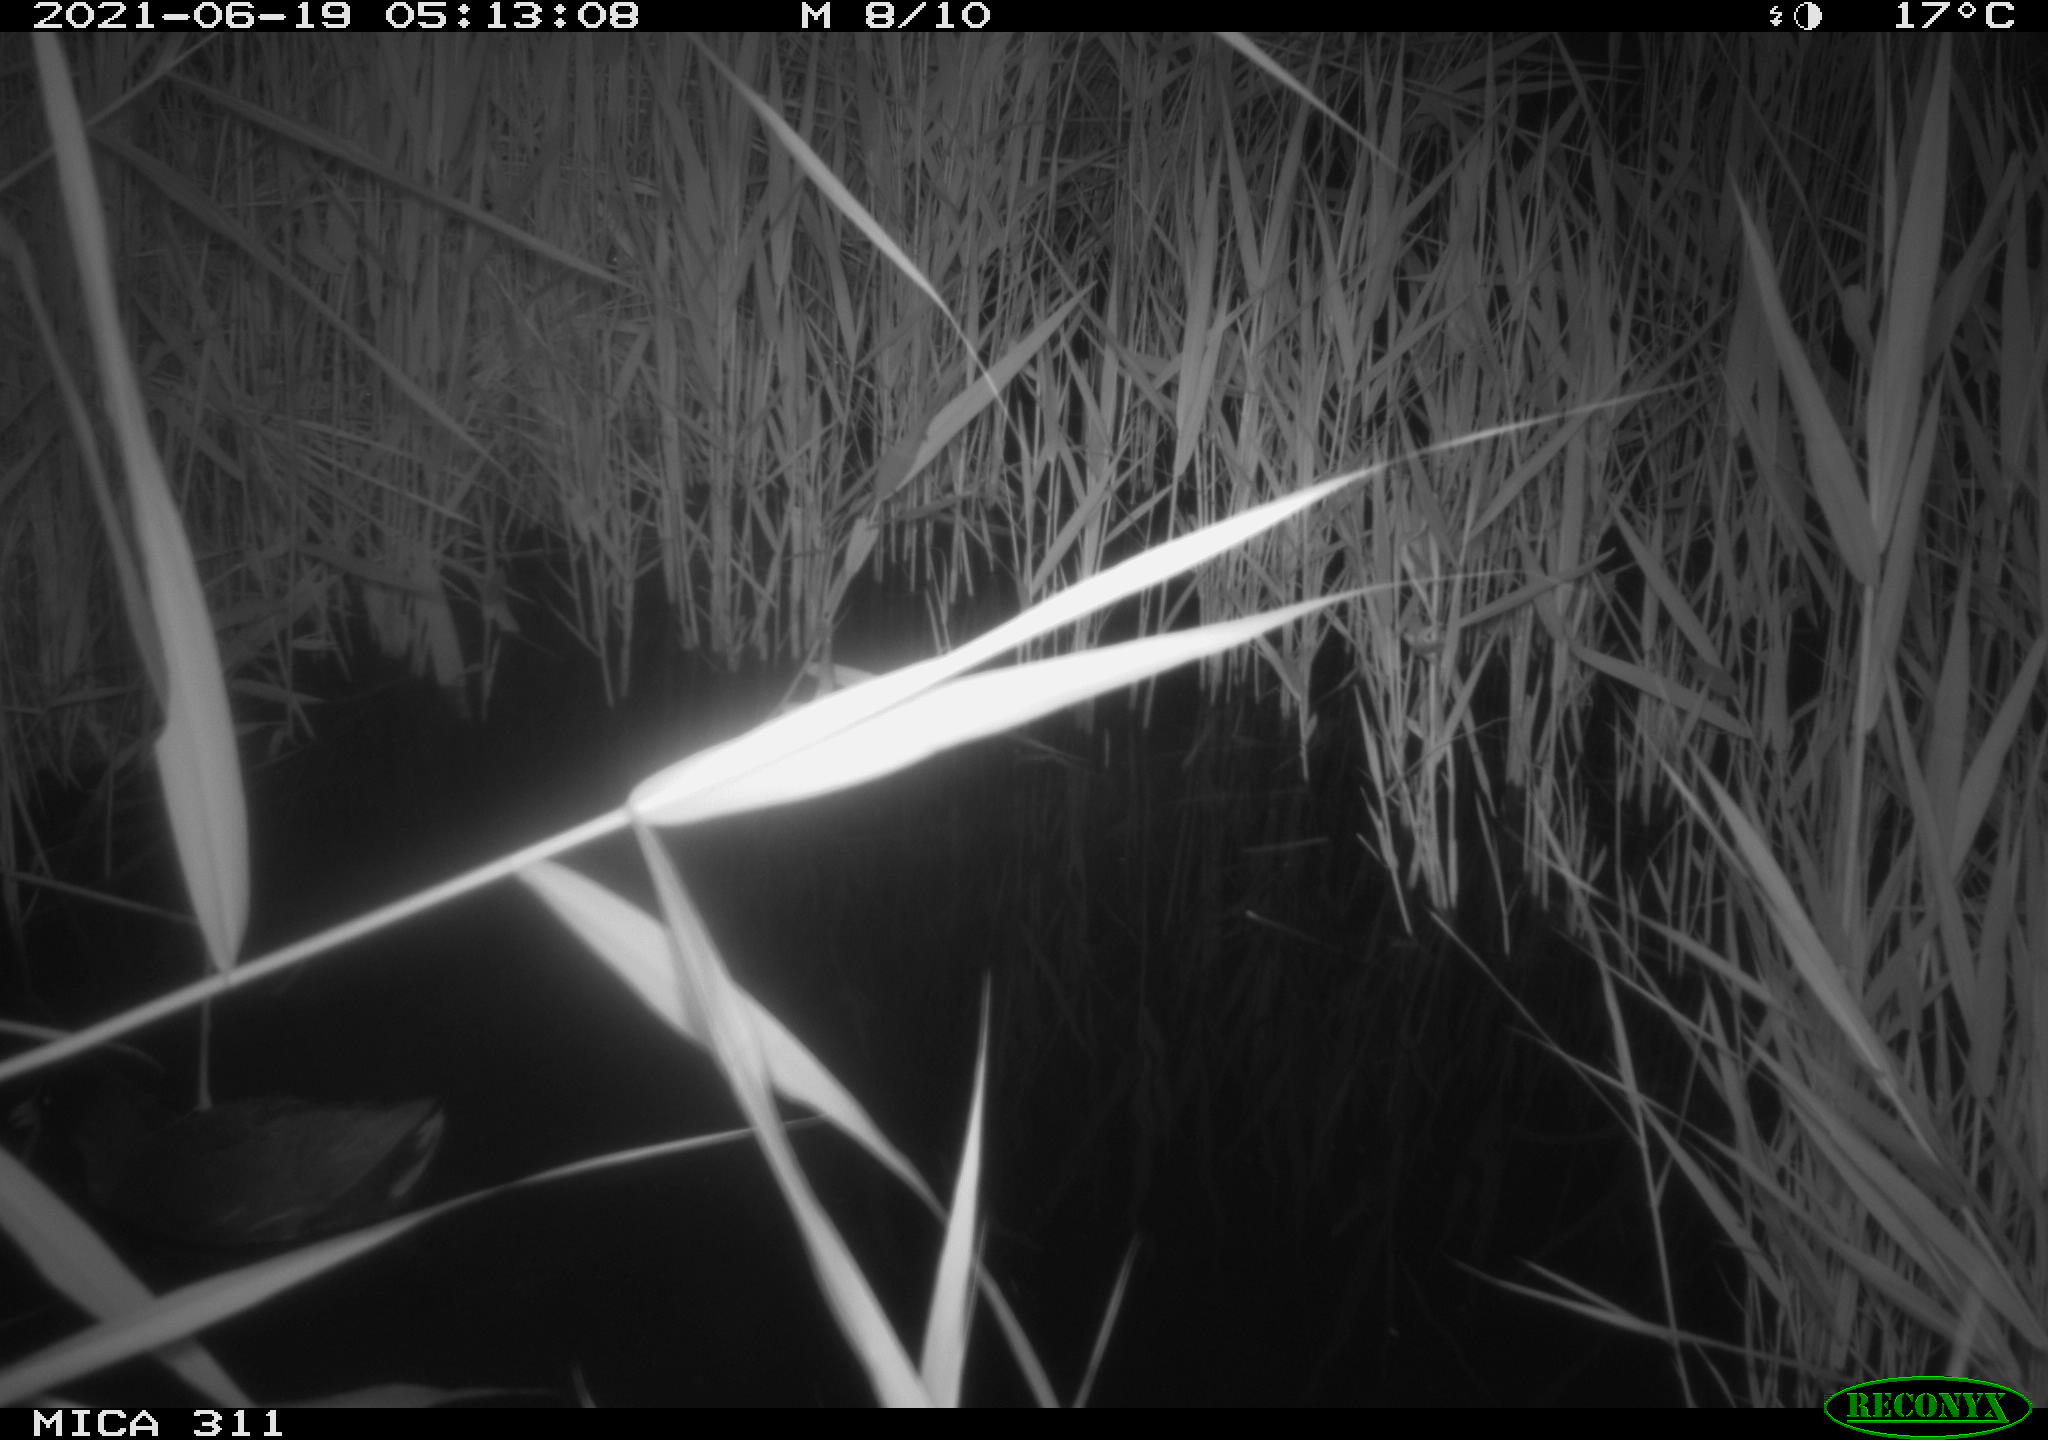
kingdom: Animalia
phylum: Chordata
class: Aves
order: Gruiformes
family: Rallidae
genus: Gallinula
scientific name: Gallinula chloropus
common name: Common moorhen
